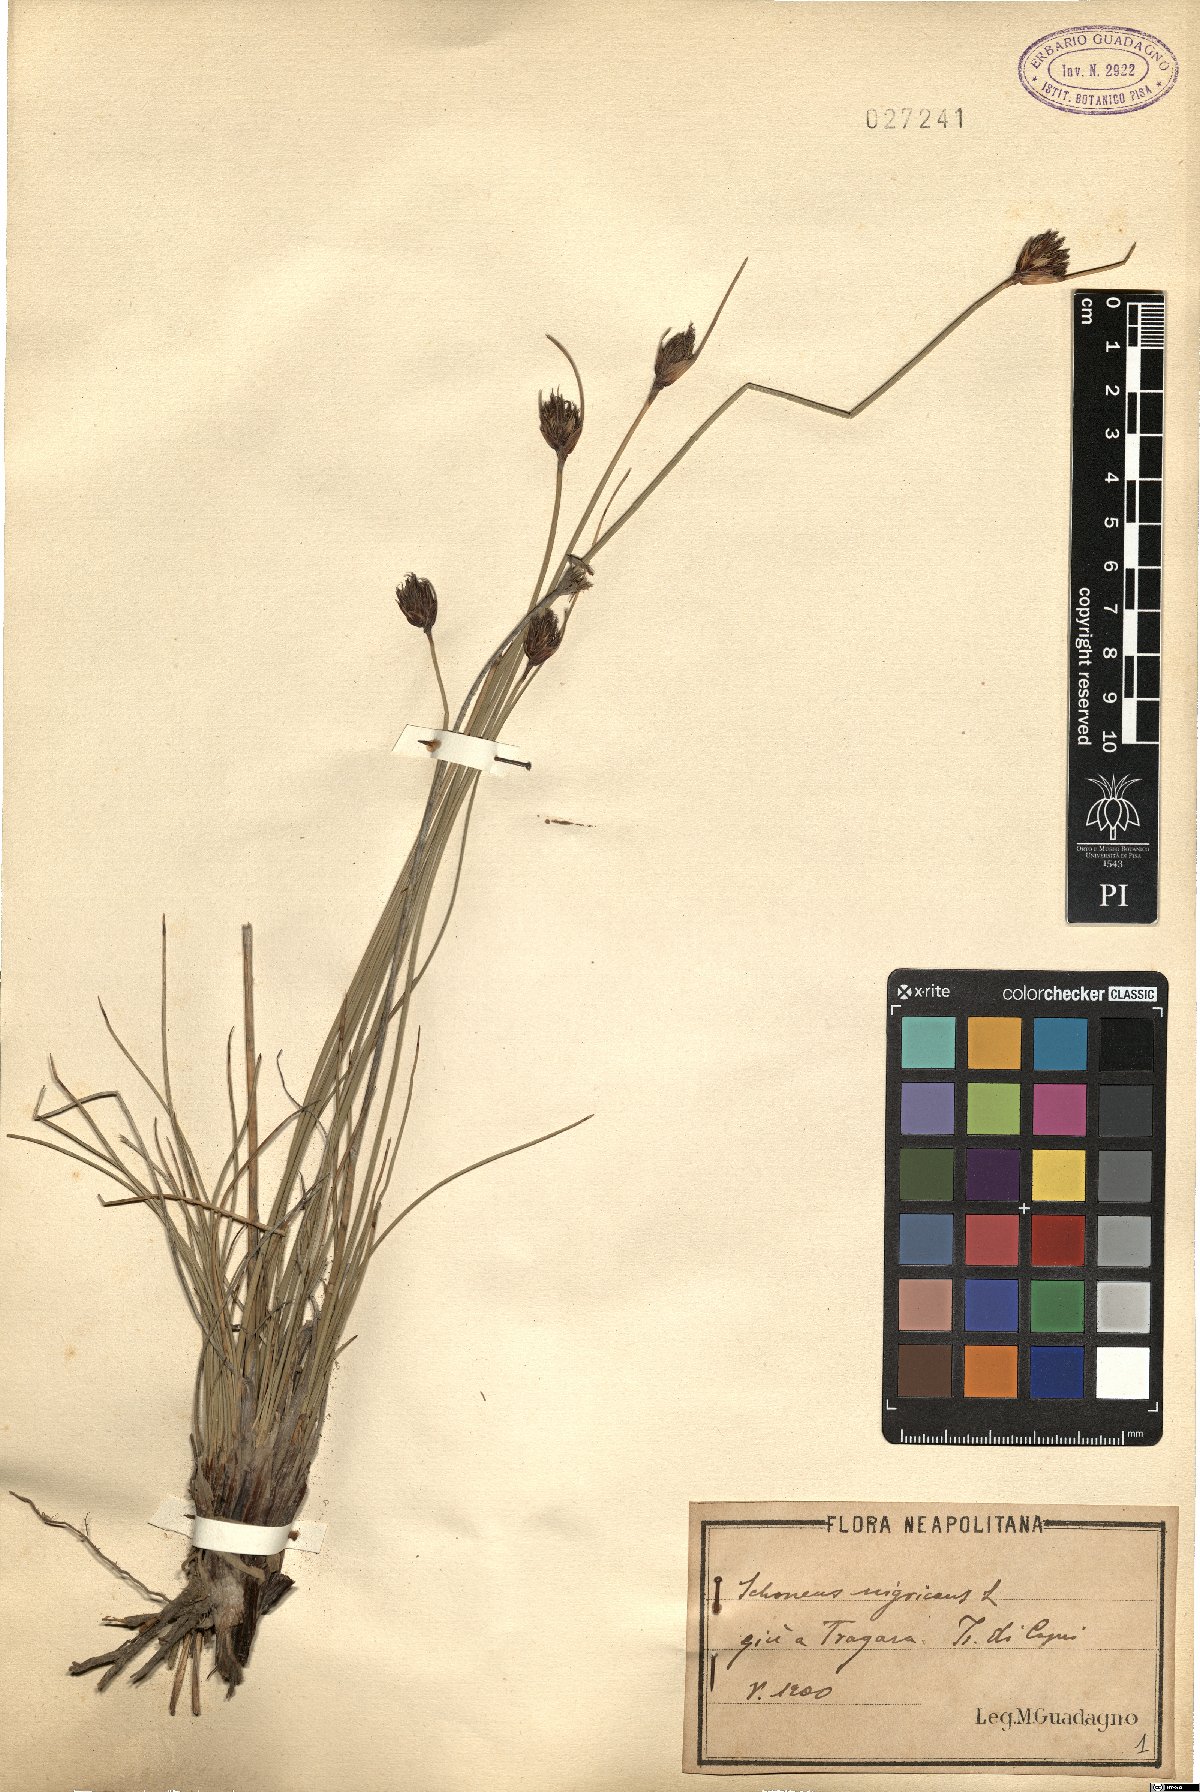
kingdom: Plantae
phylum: Tracheophyta
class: Liliopsida
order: Poales
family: Cyperaceae
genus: Schoenus
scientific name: Schoenus nigricans
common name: Black bog-rush
